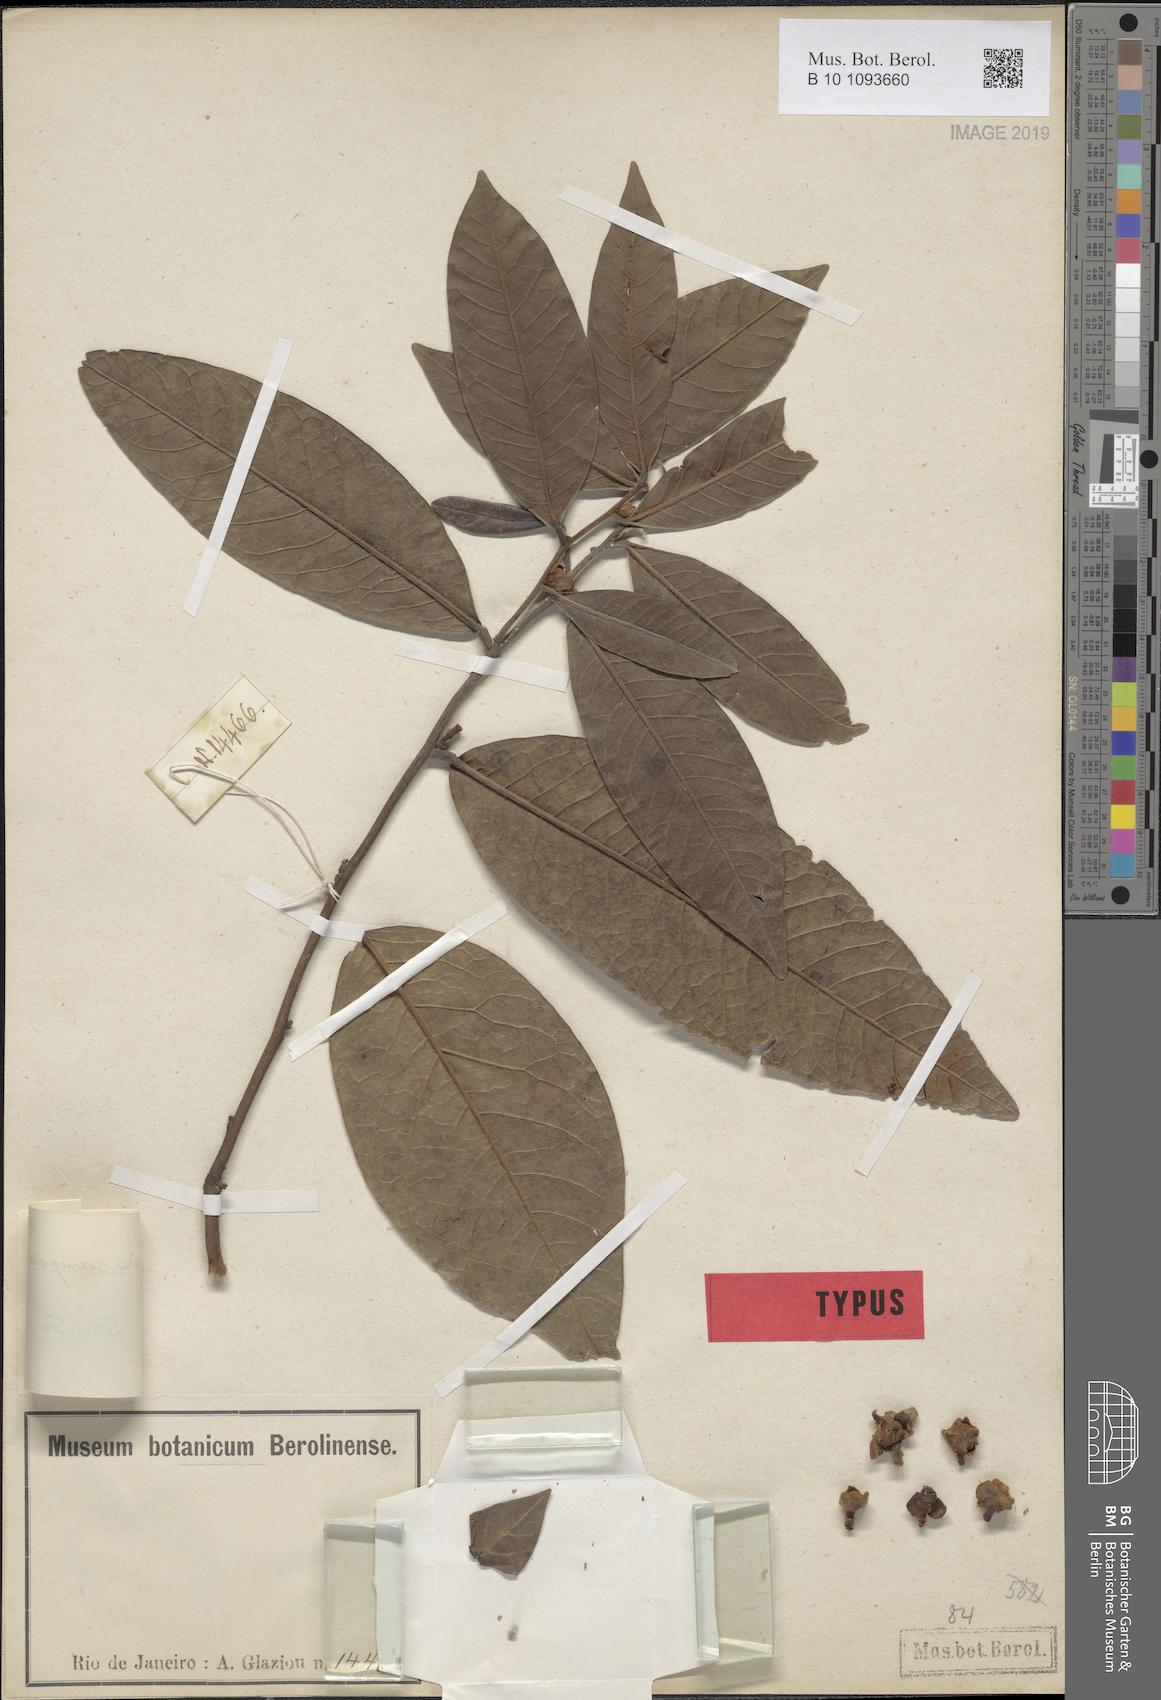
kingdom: Plantae
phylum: Tracheophyta
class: Magnoliopsida
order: Magnoliales
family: Annonaceae
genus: Guatteria
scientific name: Guatteria campestris
